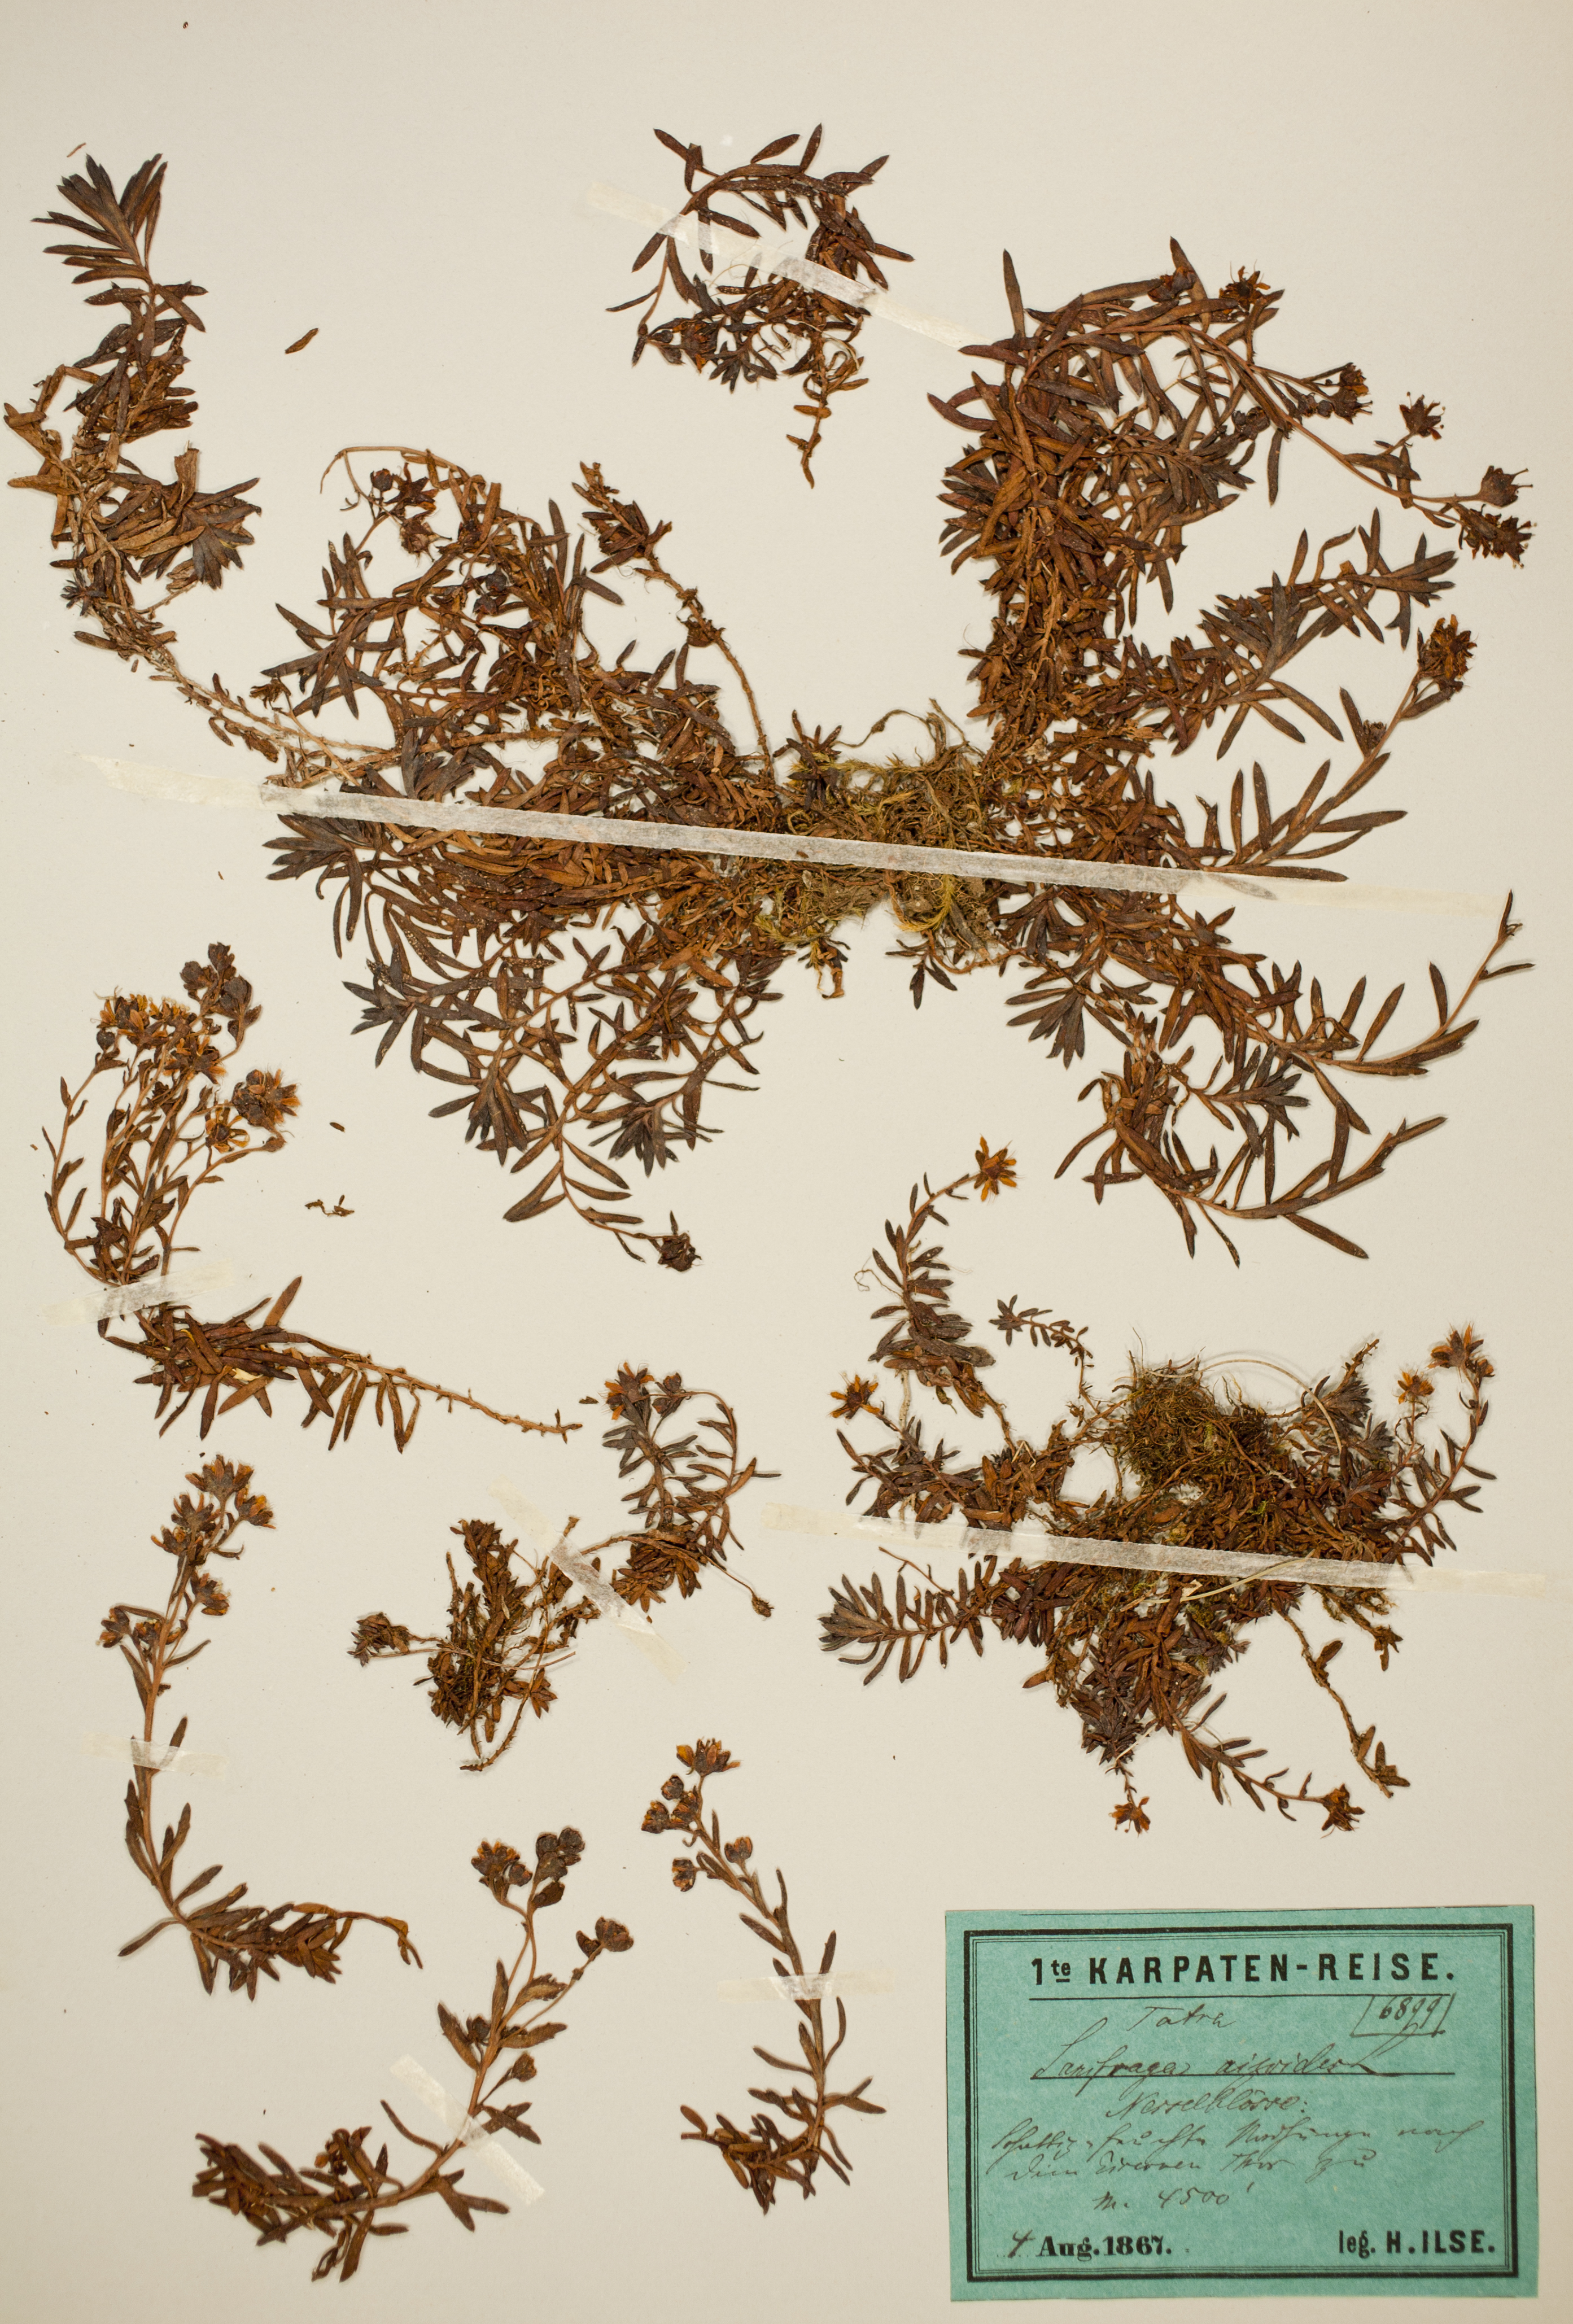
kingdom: Plantae
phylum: Tracheophyta
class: Magnoliopsida
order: Saxifragales
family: Saxifragaceae
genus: Saxifraga
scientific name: Saxifraga aizoides
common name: Yellow mountain saxifrage
